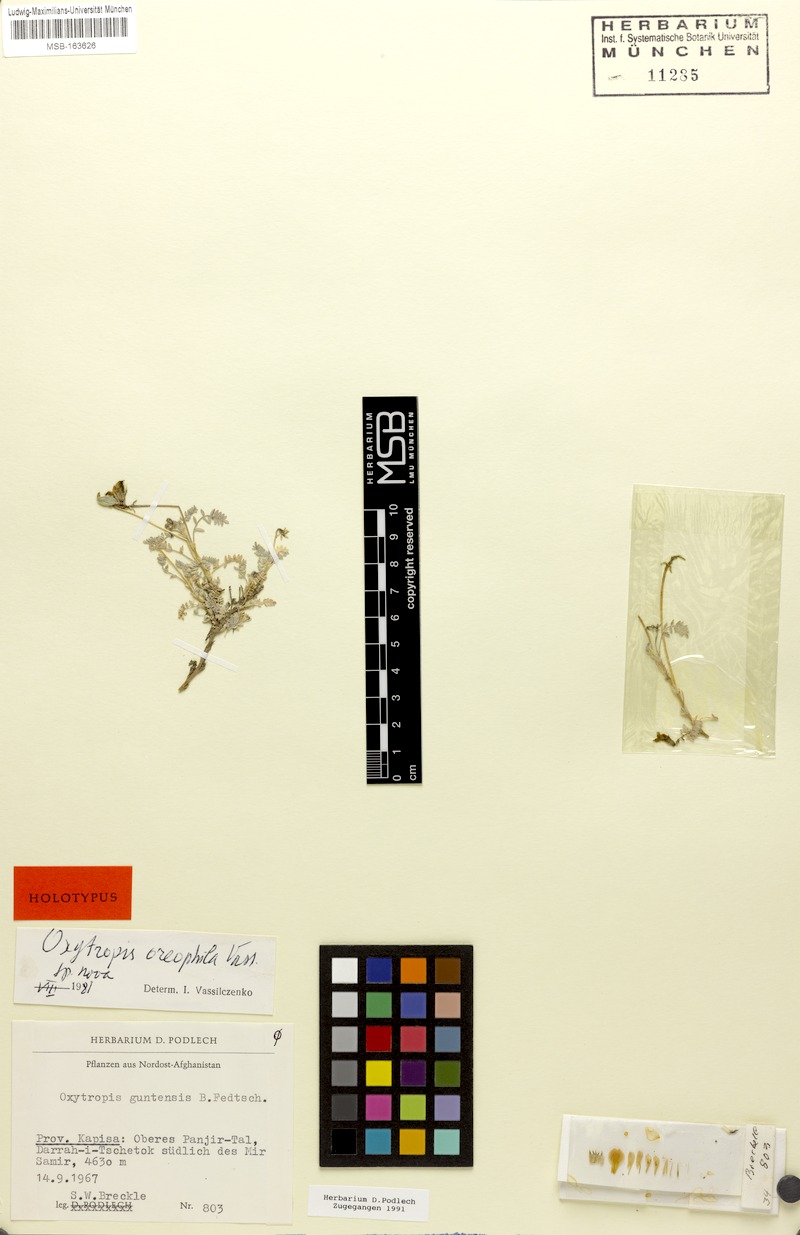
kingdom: Plantae
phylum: Tracheophyta
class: Magnoliopsida
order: Fabales
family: Fabaceae
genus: Oxytropis
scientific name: Oxytropis platonychia
